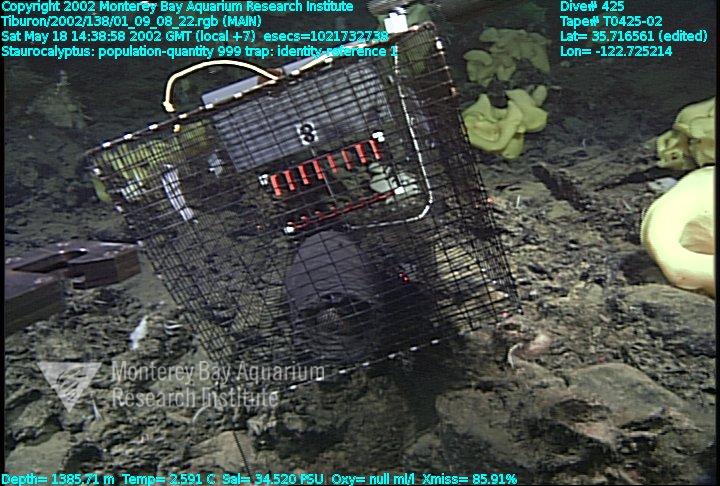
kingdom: Animalia
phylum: Porifera
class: Hexactinellida
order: Lyssacinosida
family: Rossellidae
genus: Staurocalyptus
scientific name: Staurocalyptus
